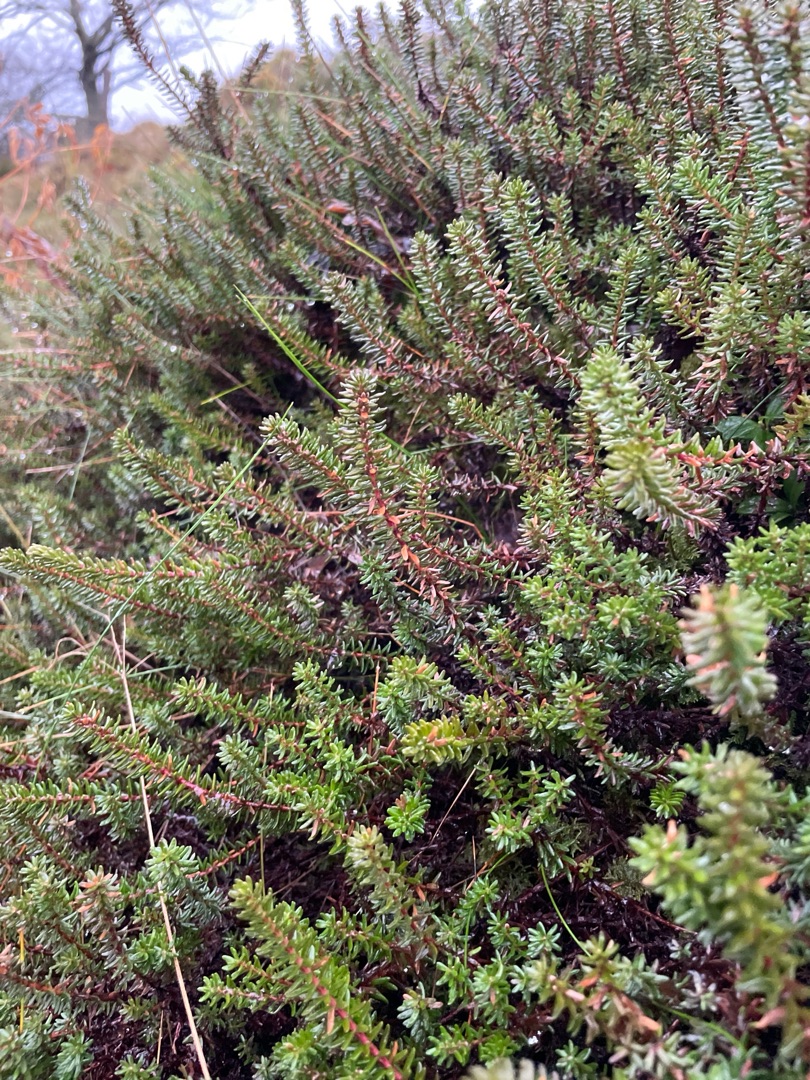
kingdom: Plantae
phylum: Tracheophyta
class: Magnoliopsida
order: Ericales
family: Ericaceae
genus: Empetrum
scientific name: Empetrum nigrum
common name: Revling
